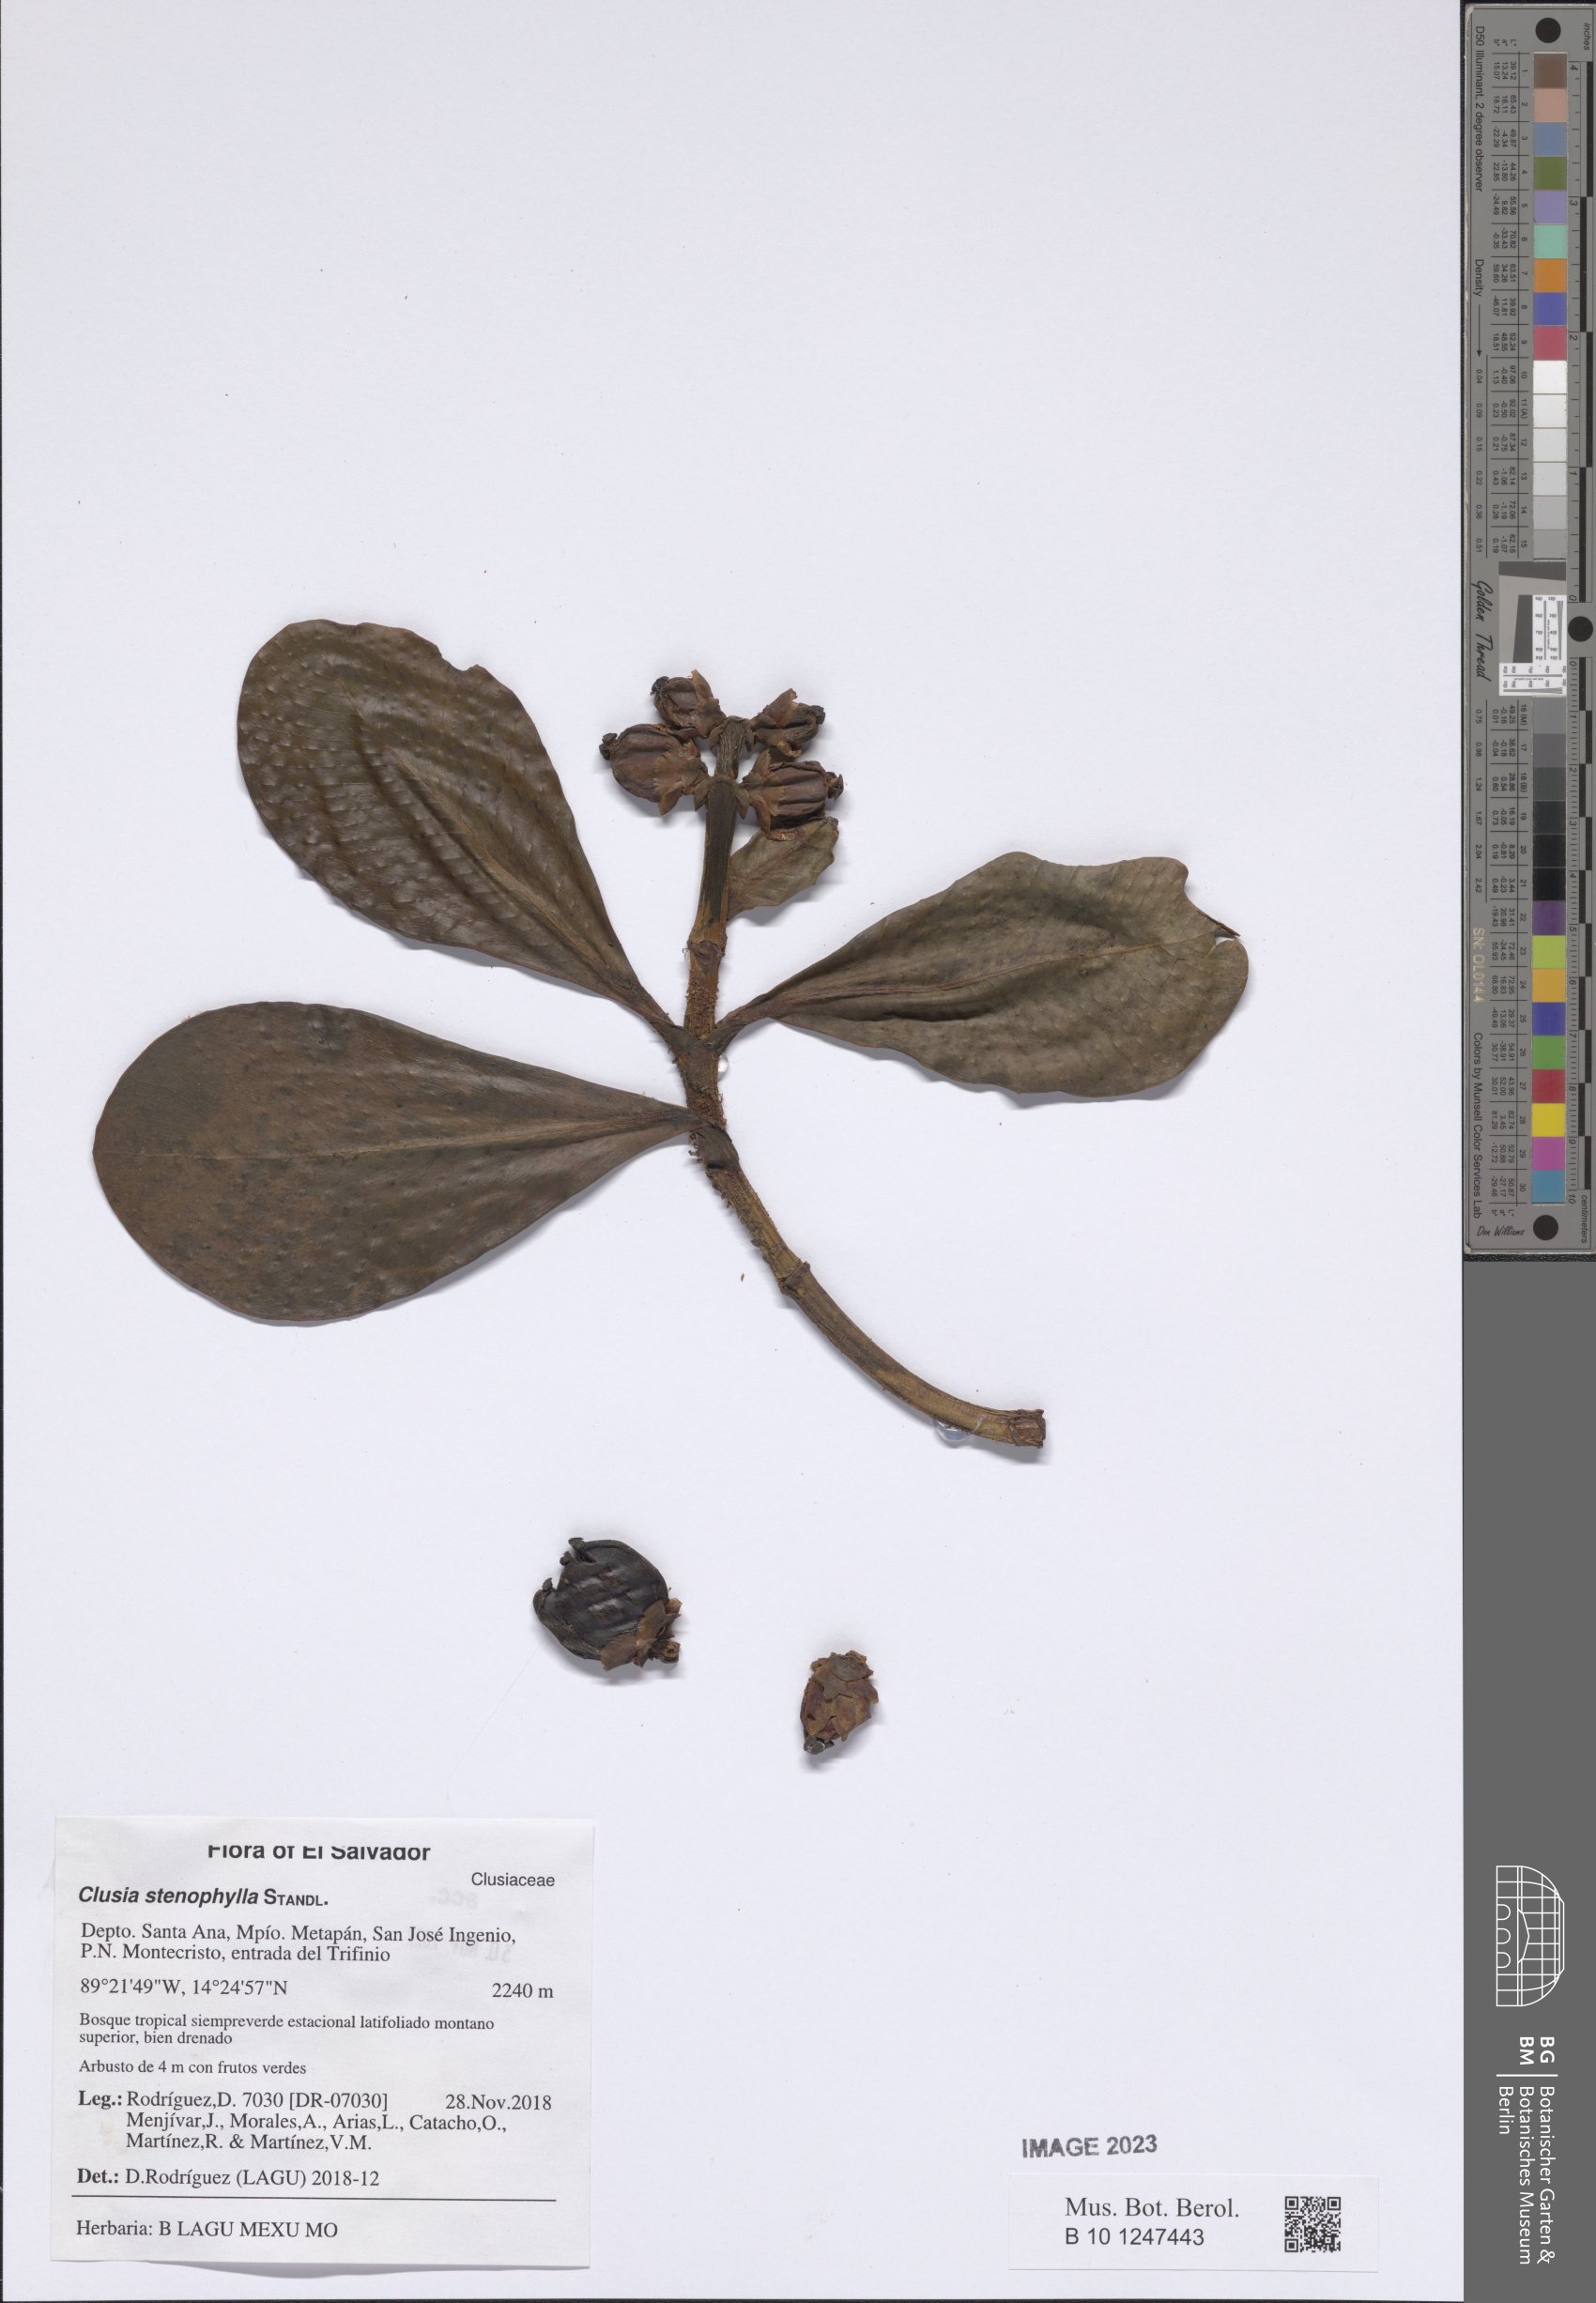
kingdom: Plantae
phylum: Tracheophyta
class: Magnoliopsida
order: Malpighiales
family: Clusiaceae
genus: Clusia
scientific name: Clusia stenophylla
